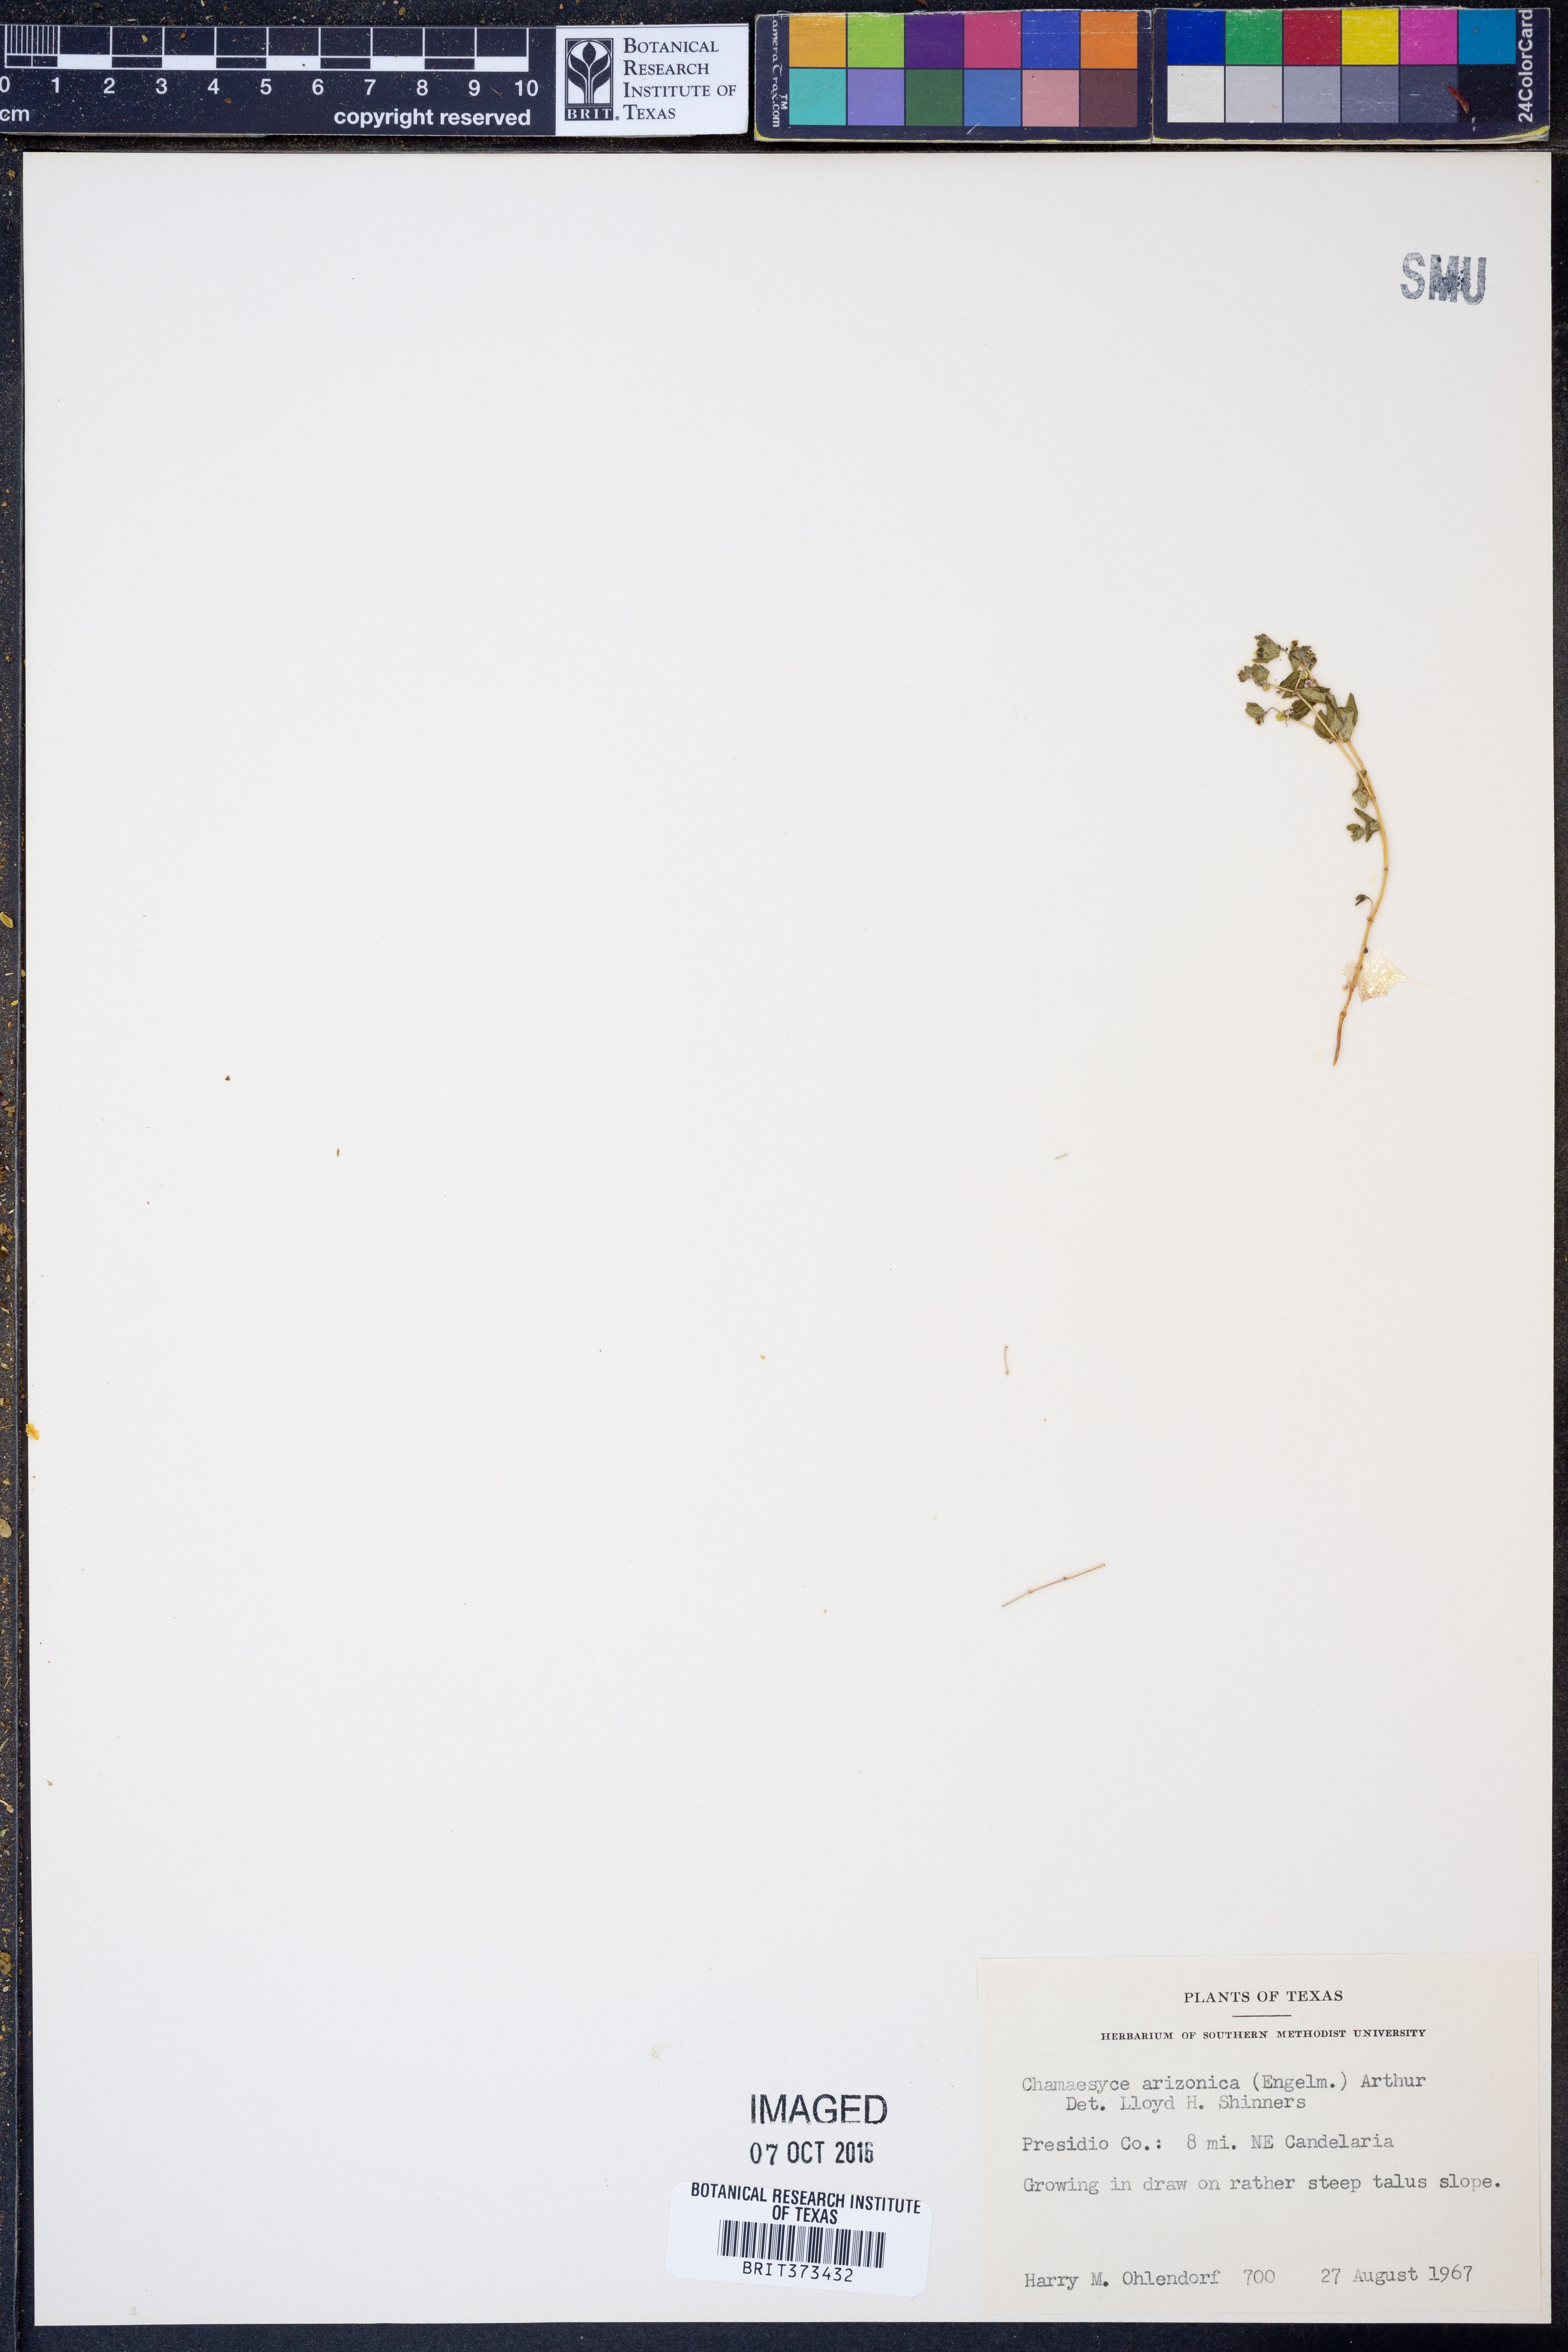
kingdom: Plantae
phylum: Tracheophyta
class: Magnoliopsida
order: Malpighiales
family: Euphorbiaceae
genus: Euphorbia
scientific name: Euphorbia arizonica
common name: Arizona spurge
